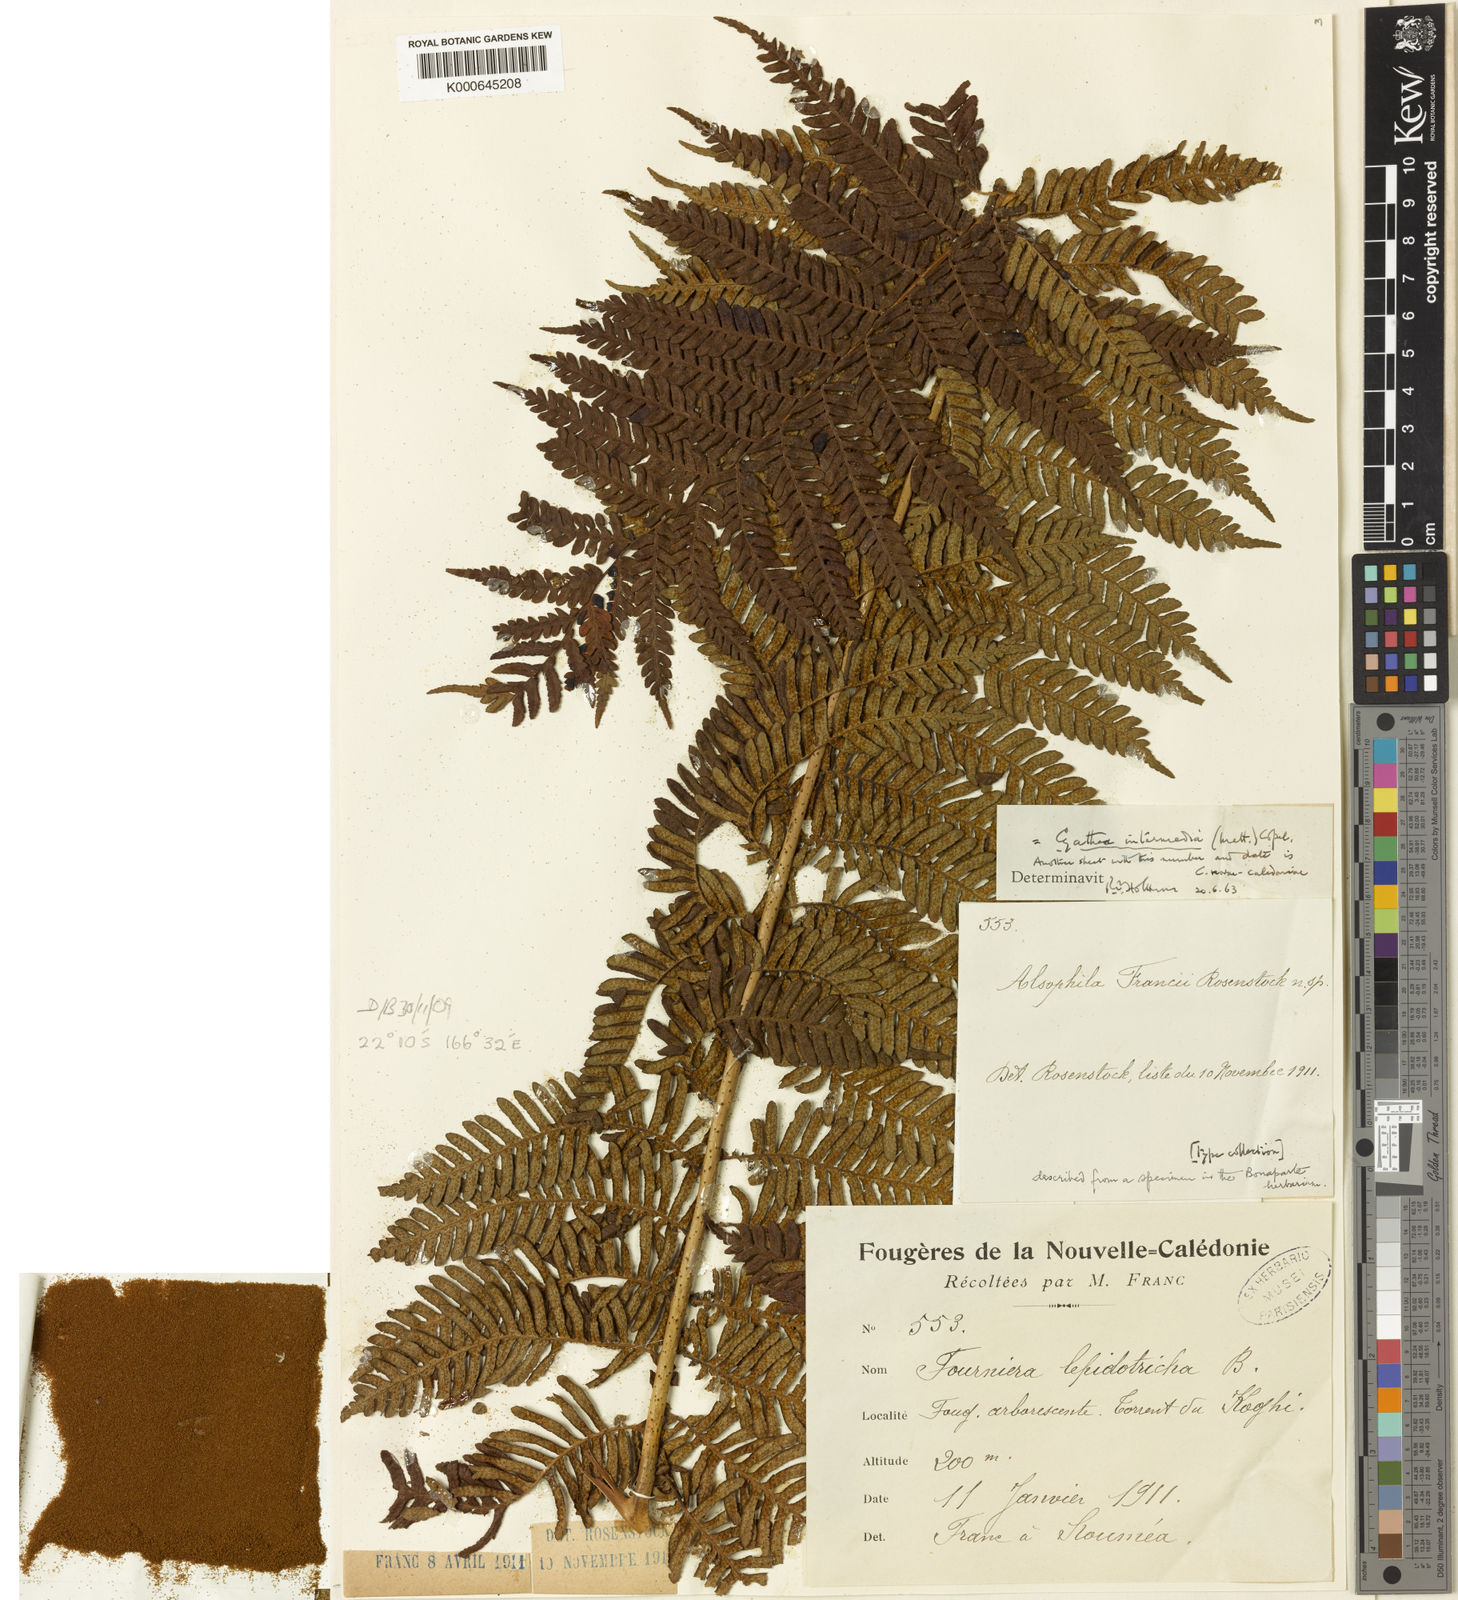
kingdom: Plantae
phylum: Tracheophyta
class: Polypodiopsida
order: Cyatheales
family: Cyatheaceae
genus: Sphaeropteris
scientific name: Sphaeropteris intermedia
